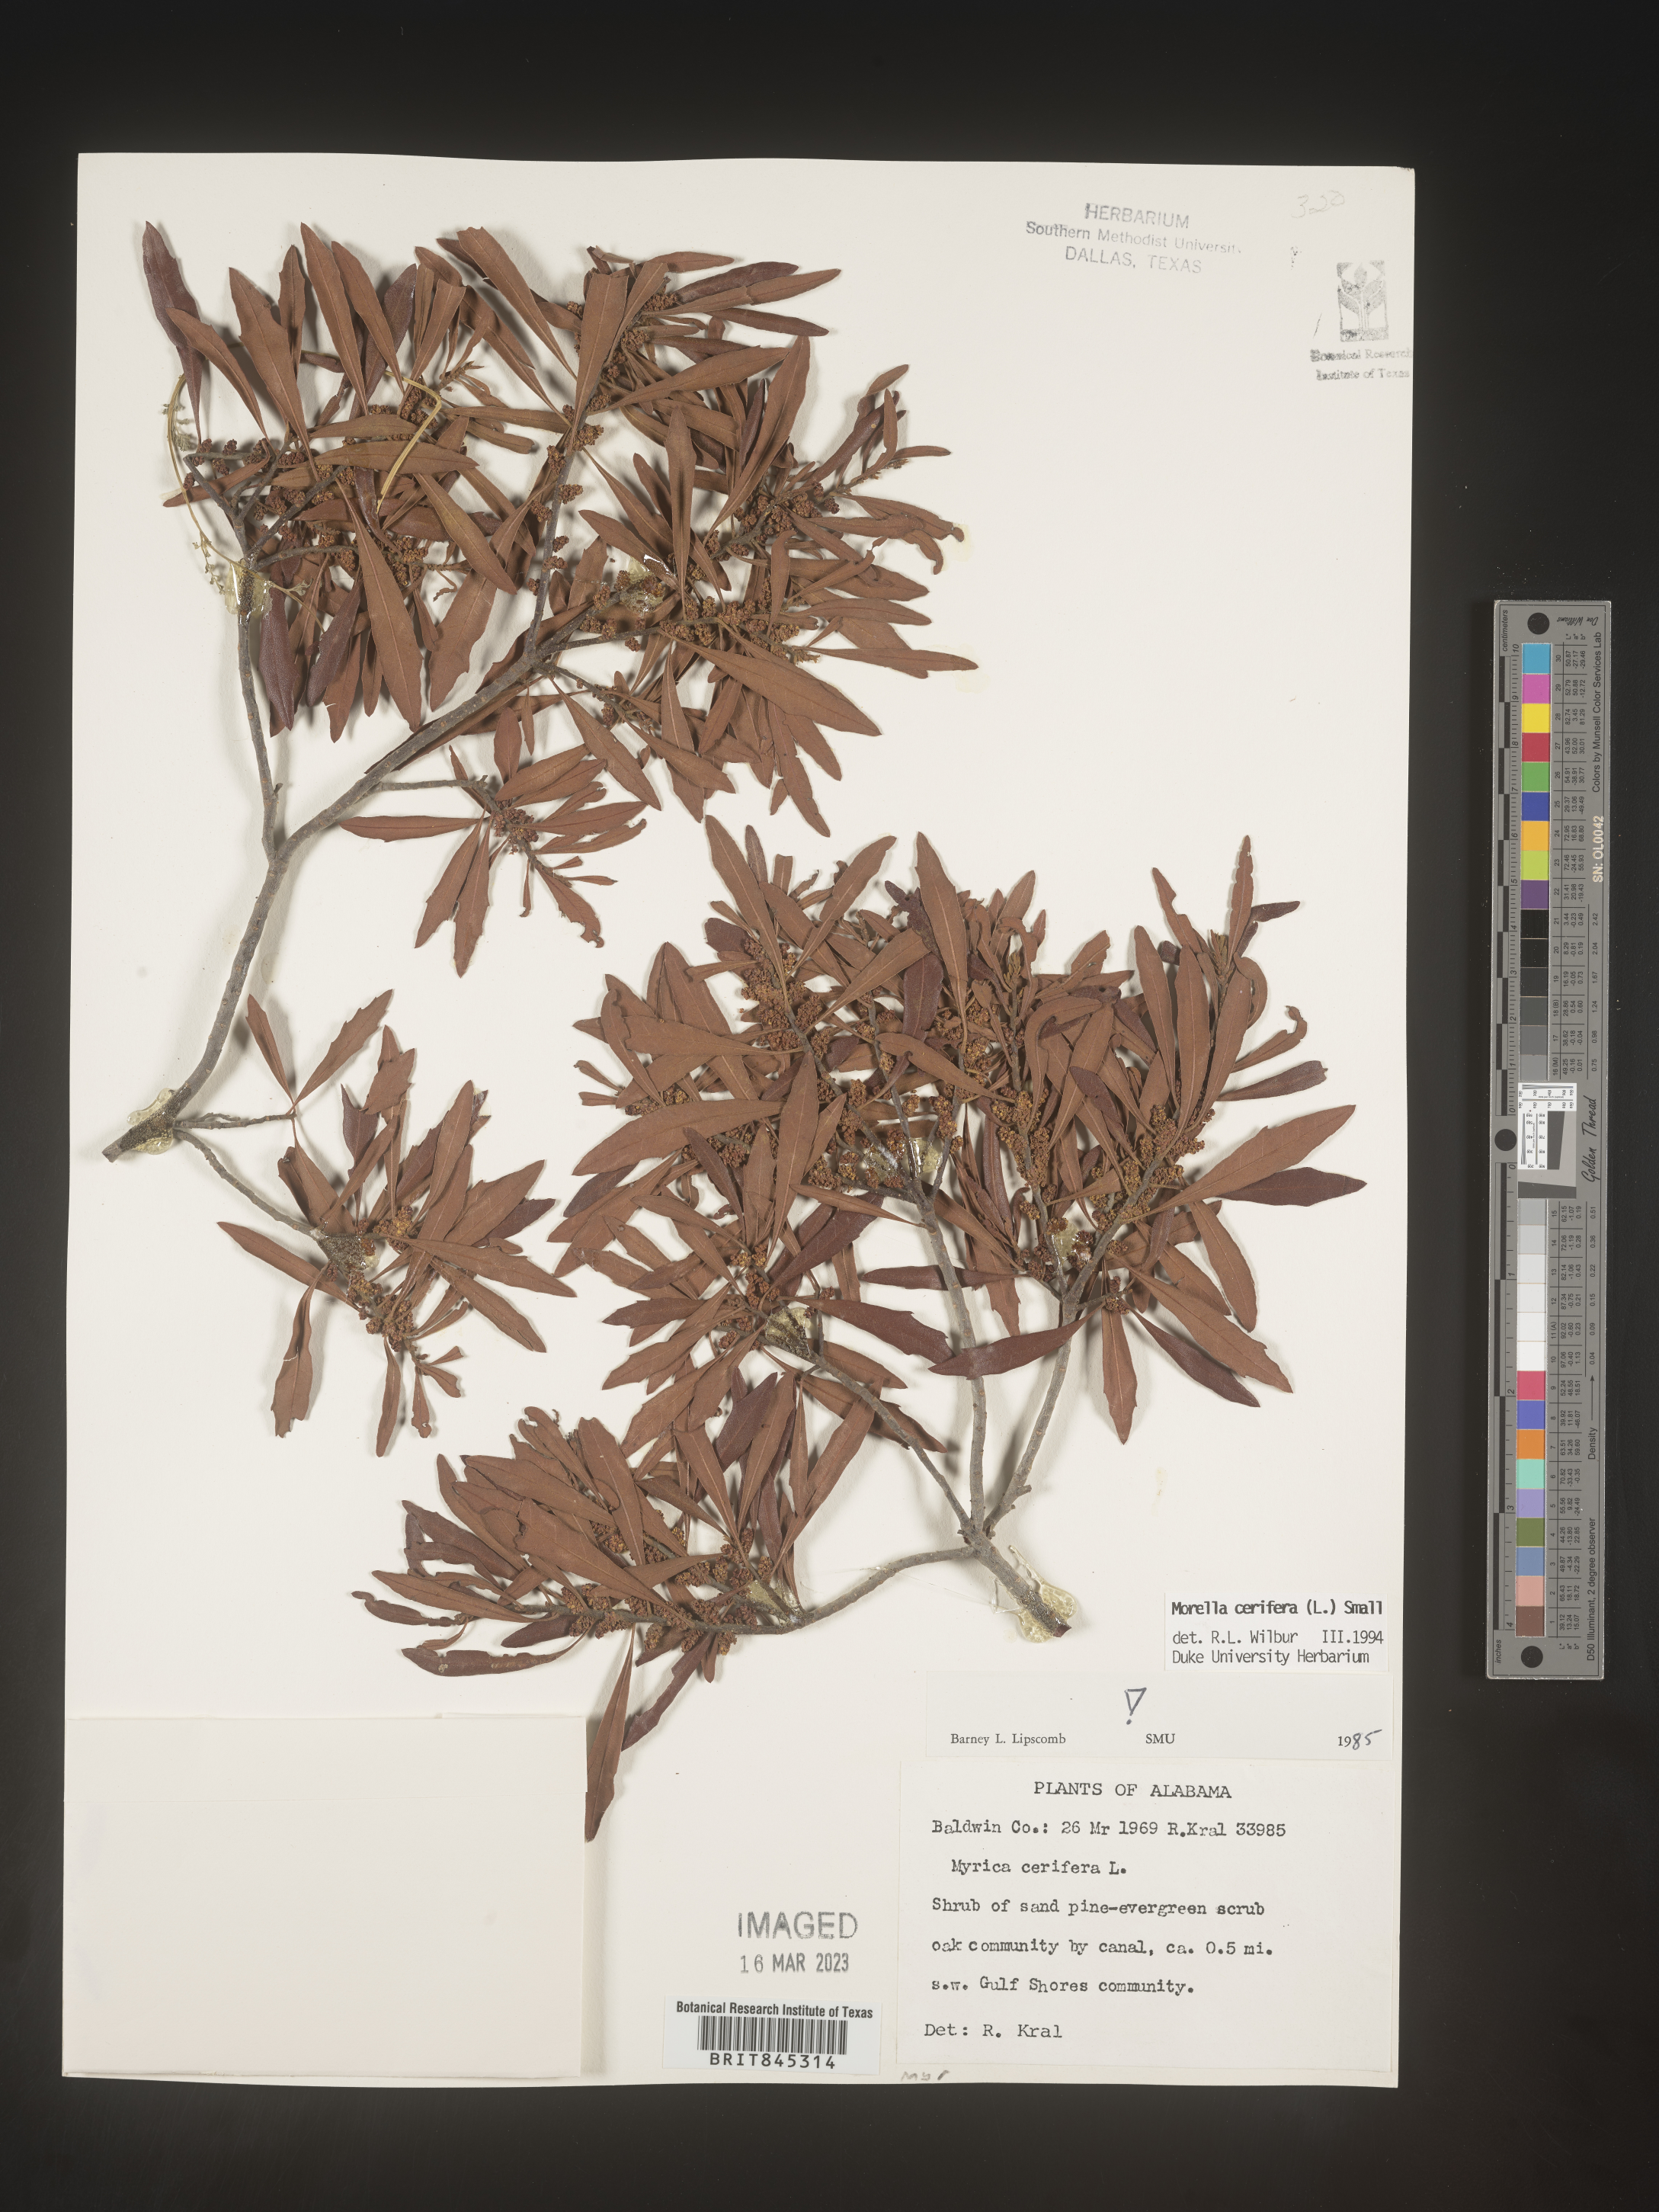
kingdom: Plantae
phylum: Tracheophyta
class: Magnoliopsida
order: Fagales
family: Myricaceae
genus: Morella
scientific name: Morella cerifera
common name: Wax myrtle
